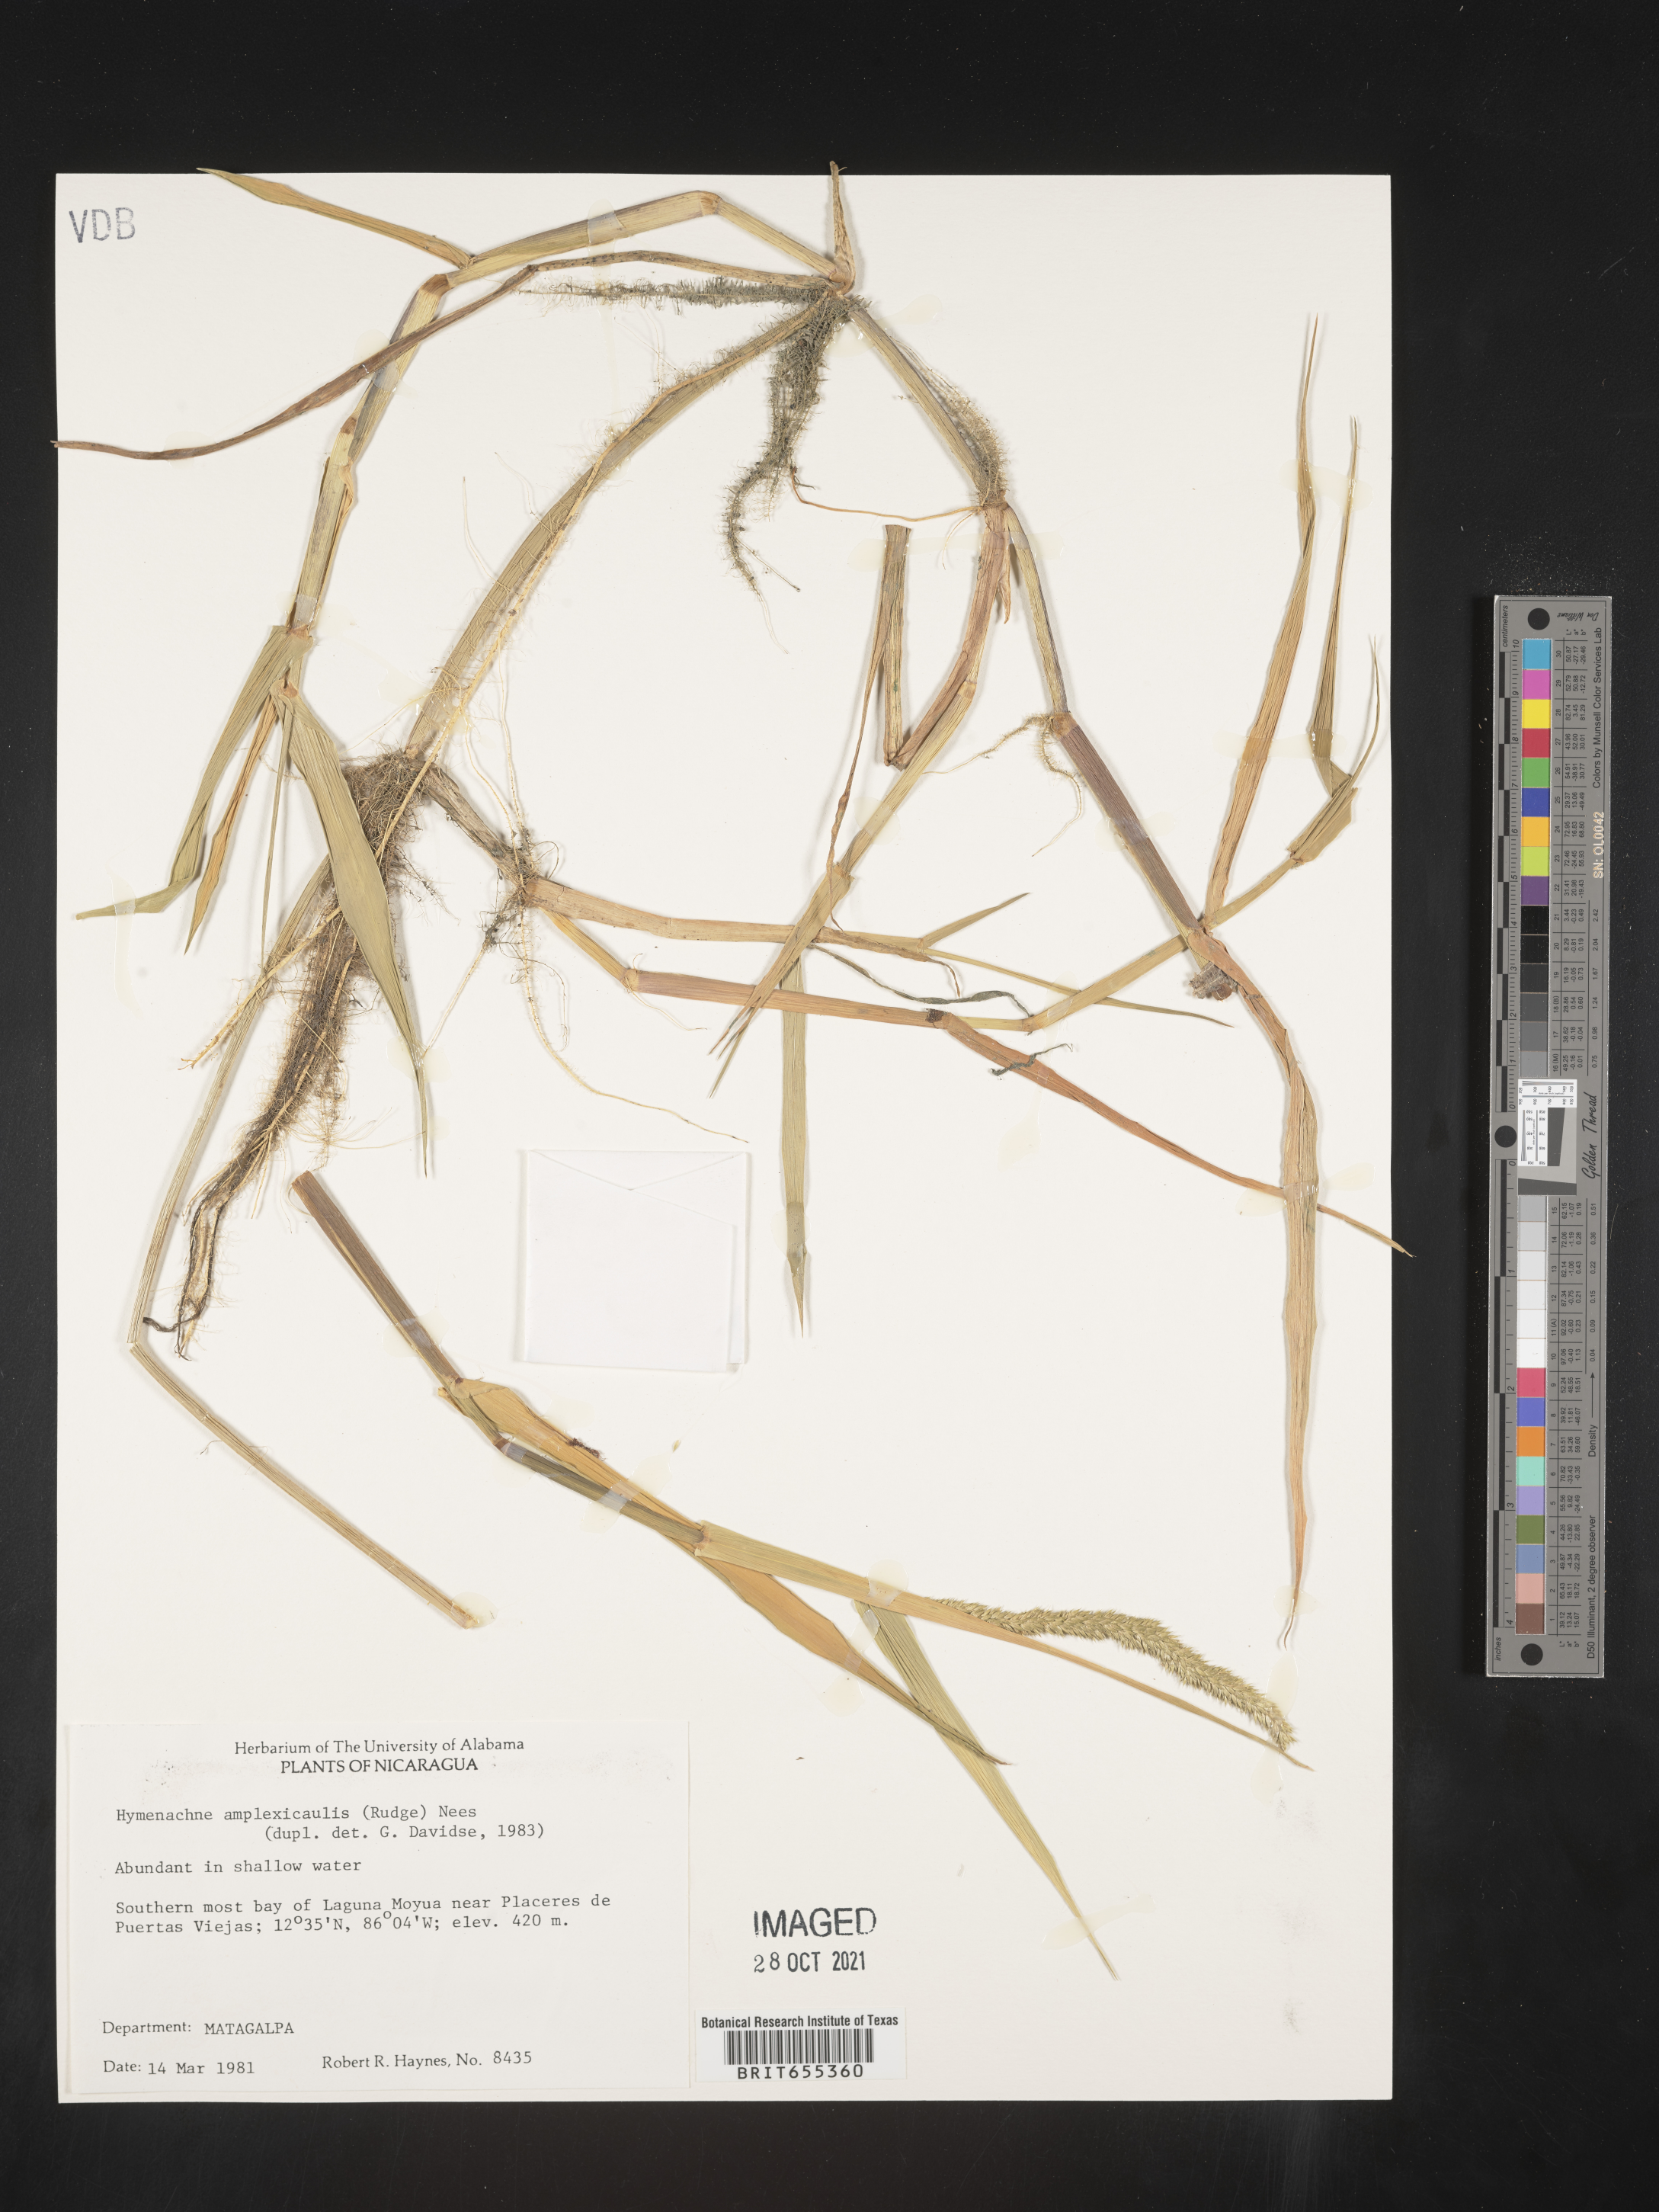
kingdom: Plantae
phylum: Tracheophyta
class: Liliopsida
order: Poales
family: Poaceae
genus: Hymenachne
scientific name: Hymenachne
